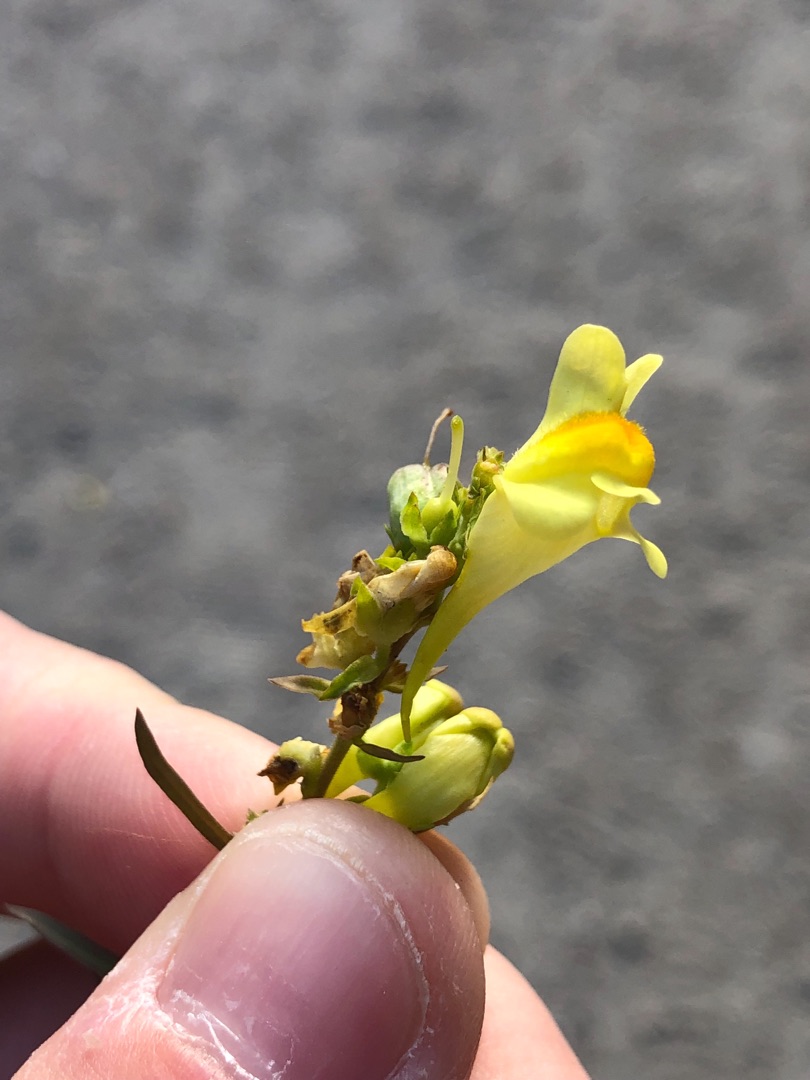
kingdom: Plantae
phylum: Tracheophyta
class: Magnoliopsida
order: Lamiales
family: Plantaginaceae
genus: Linaria
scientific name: Linaria vulgaris
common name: Almindelig torskemund
